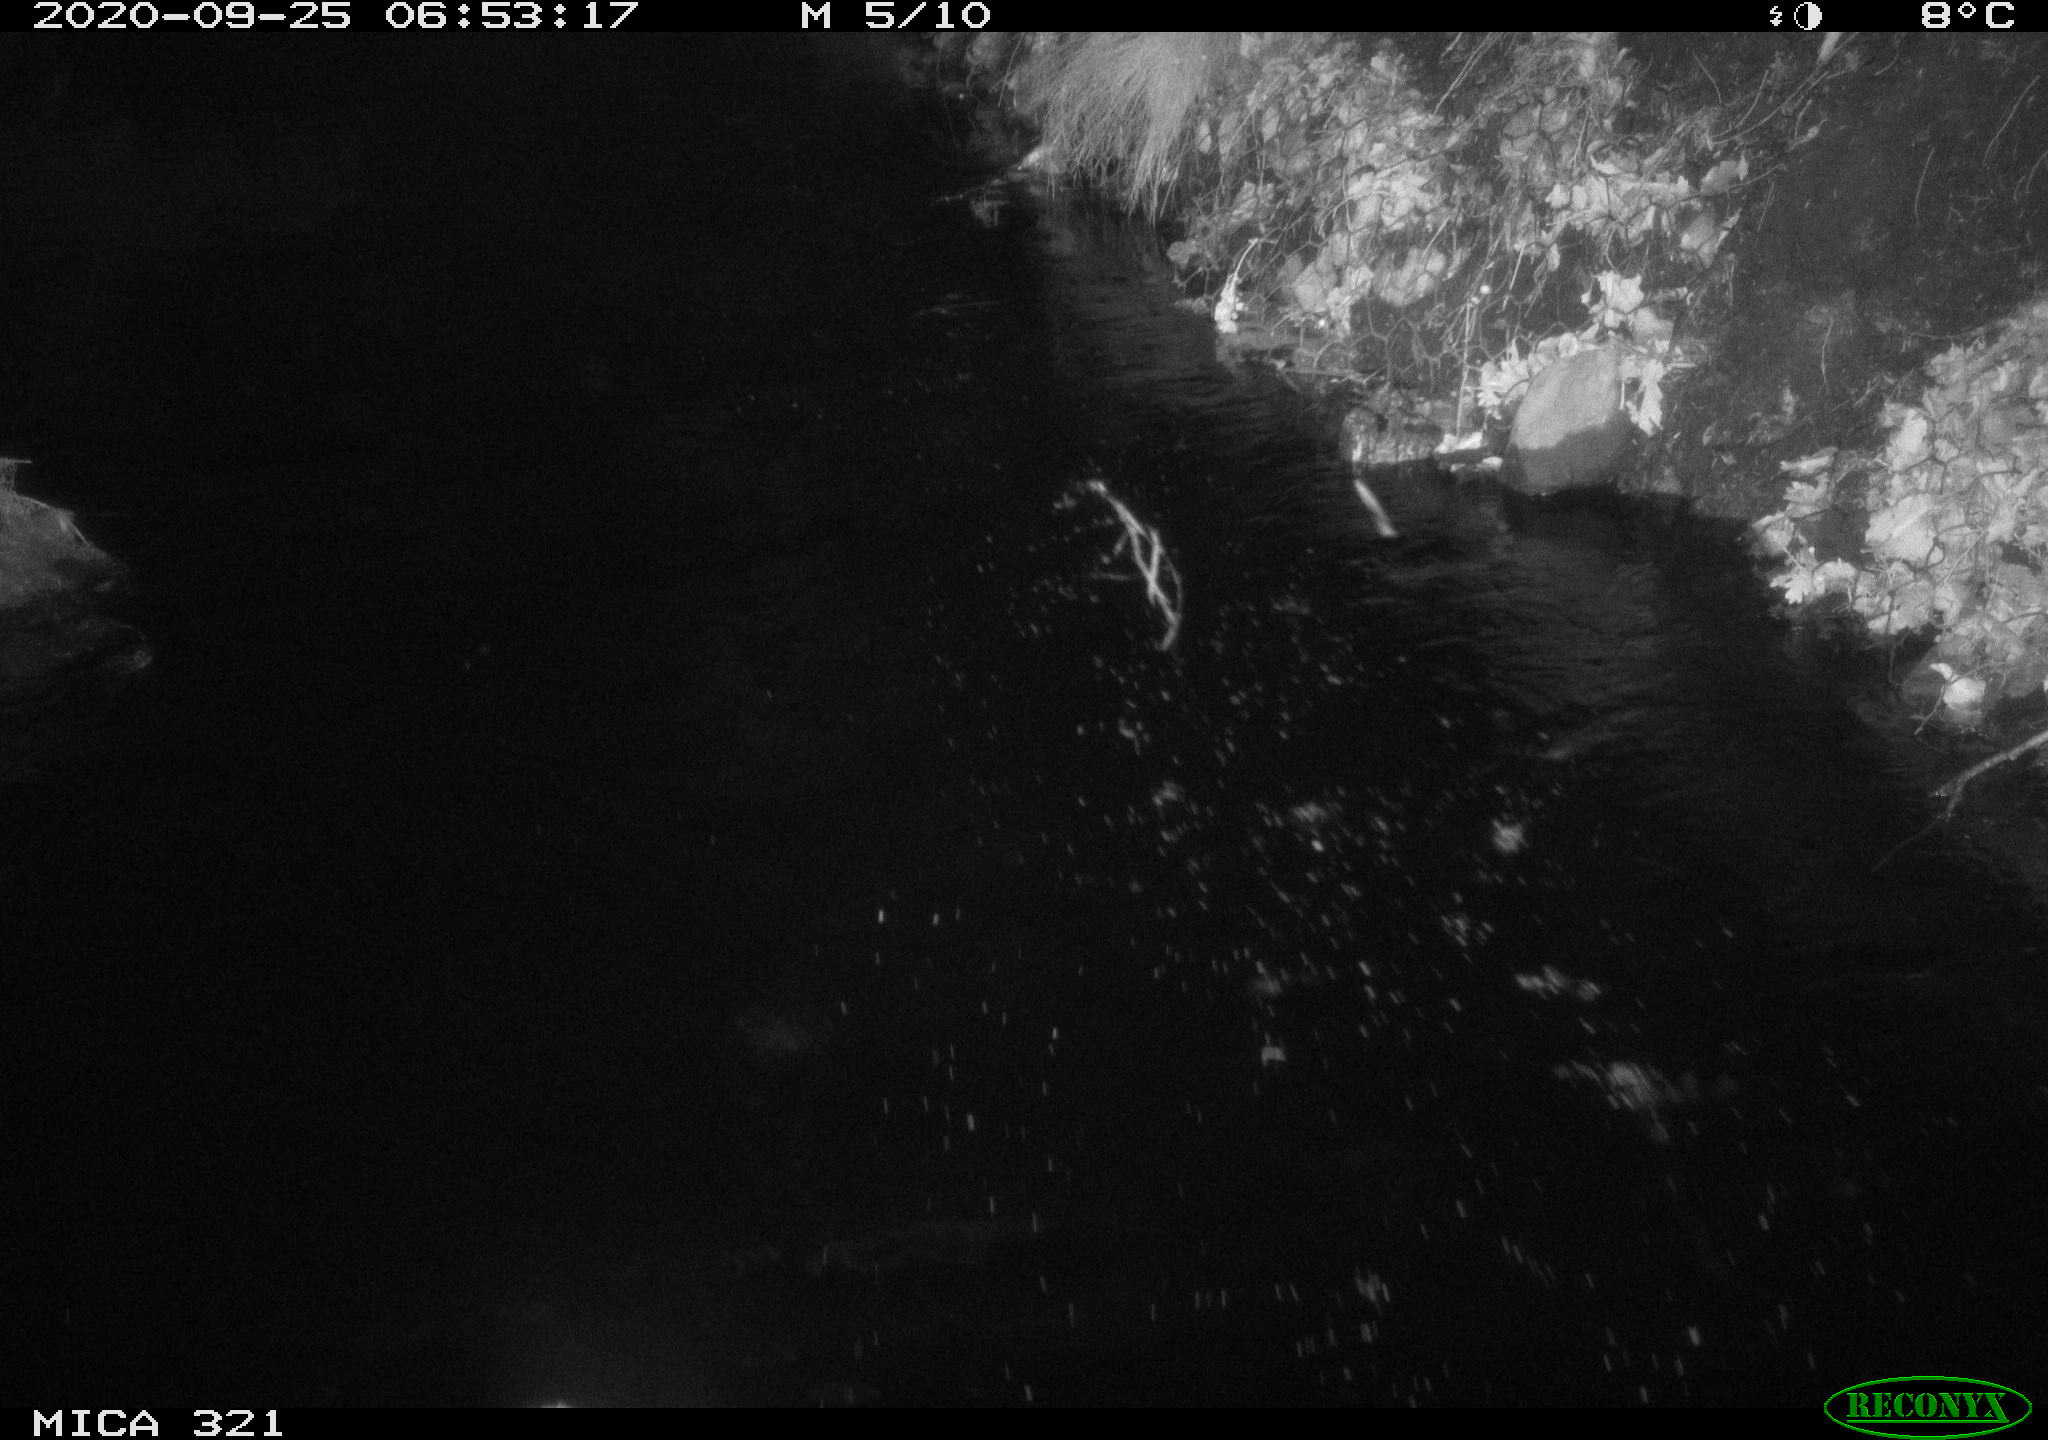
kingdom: Animalia
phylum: Chordata
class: Aves
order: Anseriformes
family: Anatidae
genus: Anas
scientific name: Anas platyrhynchos
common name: Mallard
